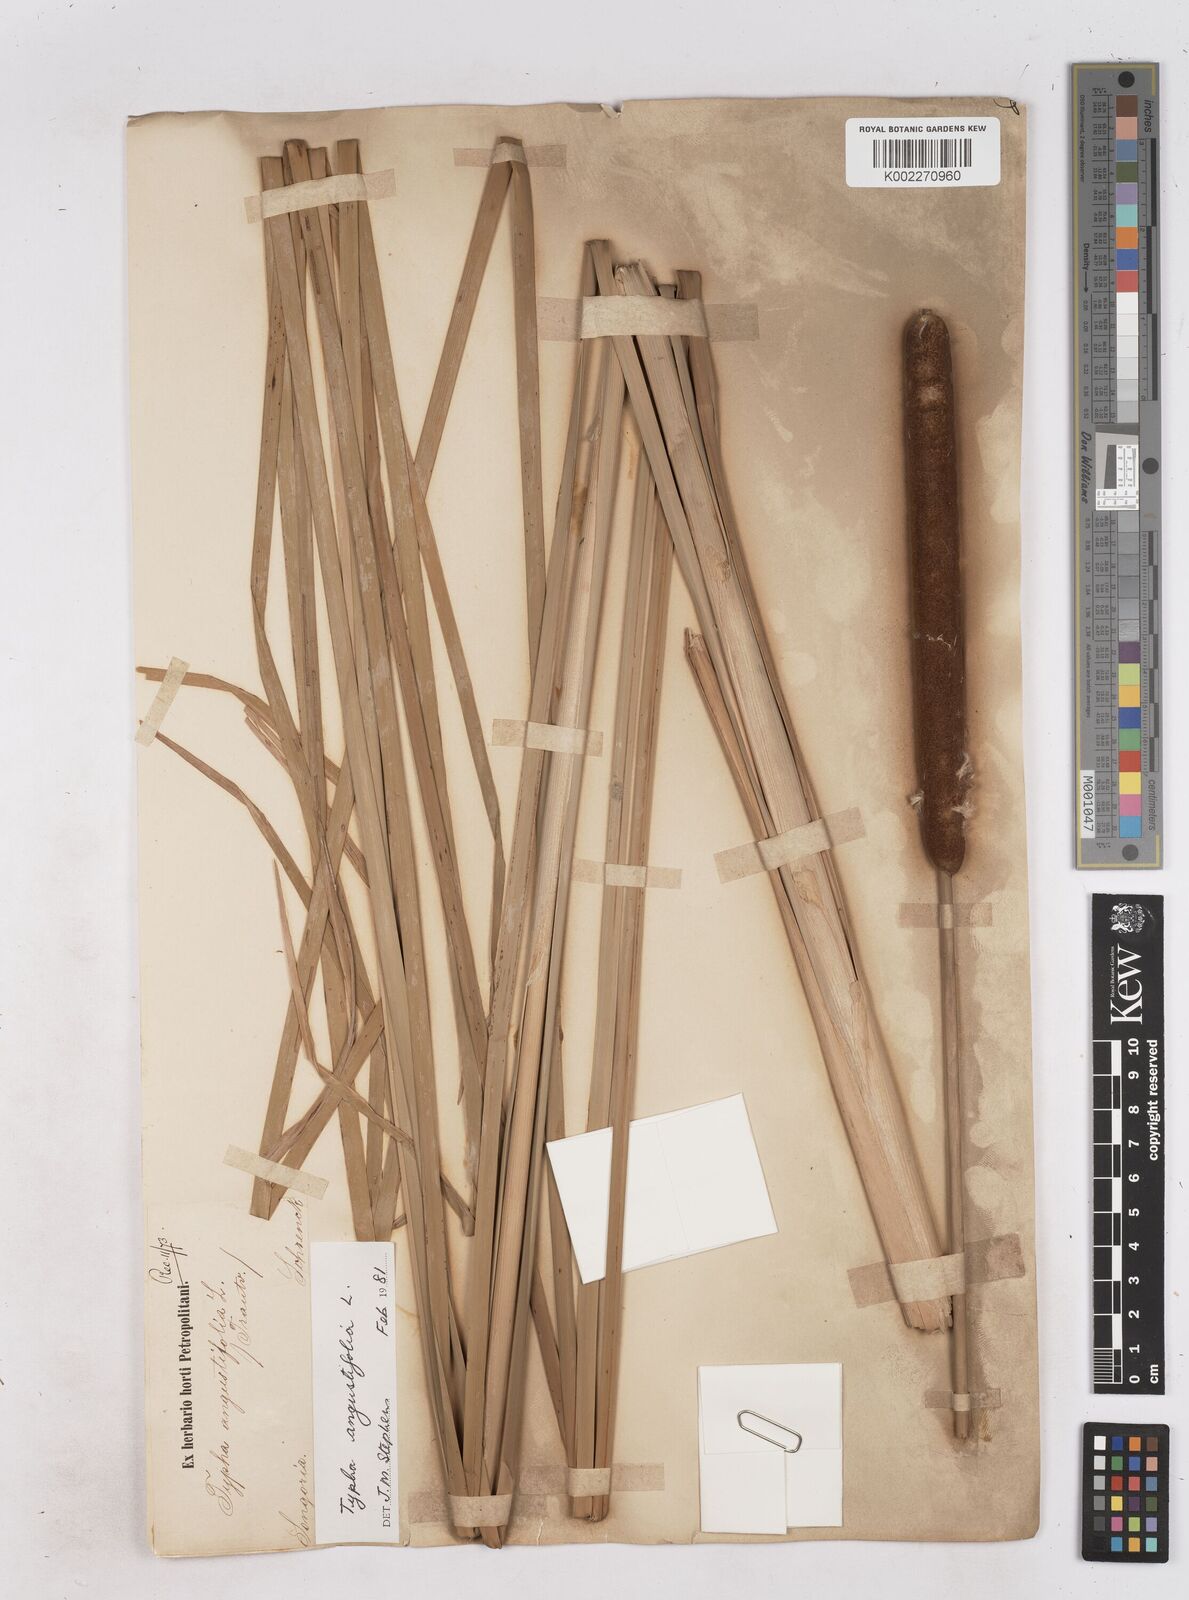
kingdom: Plantae
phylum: Tracheophyta
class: Liliopsida
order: Poales
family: Typhaceae
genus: Typha
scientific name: Typha angustifolia
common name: Lesser bulrush
